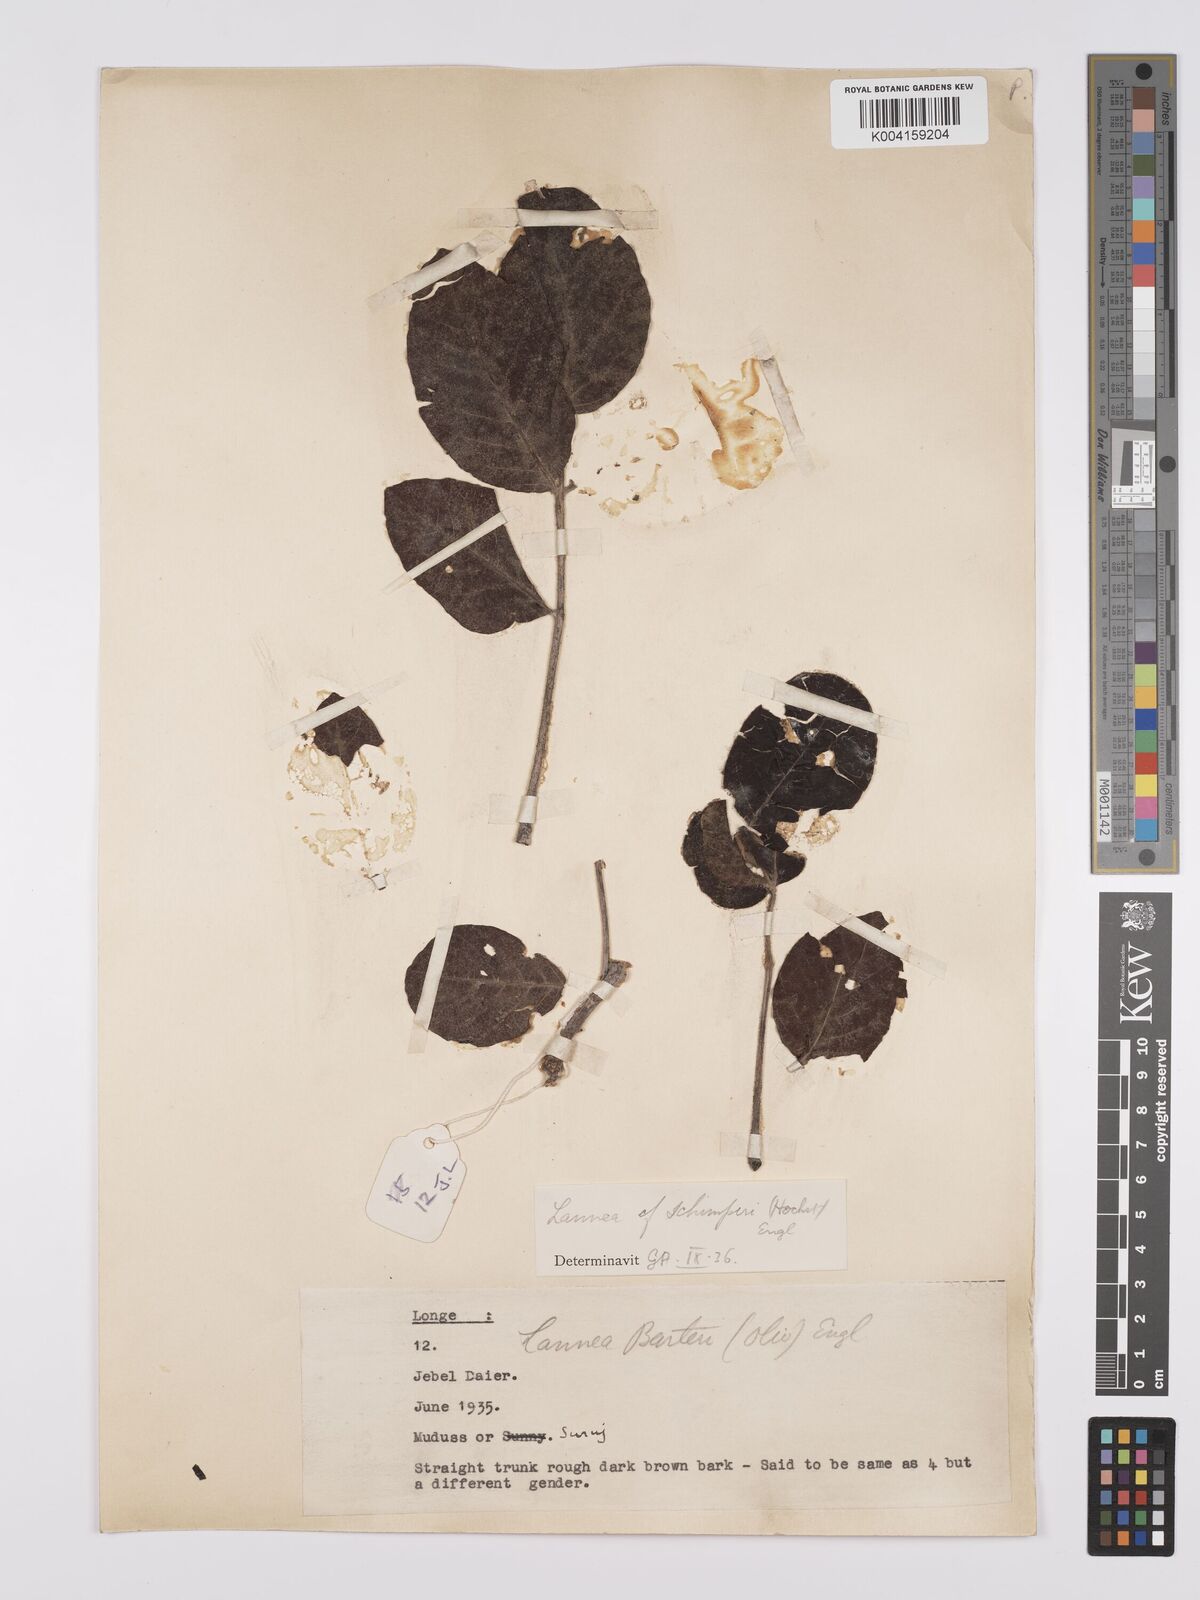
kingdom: Plantae
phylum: Tracheophyta
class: Magnoliopsida
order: Sapindales
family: Anacardiaceae
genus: Lannea
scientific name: Lannea schimperi
